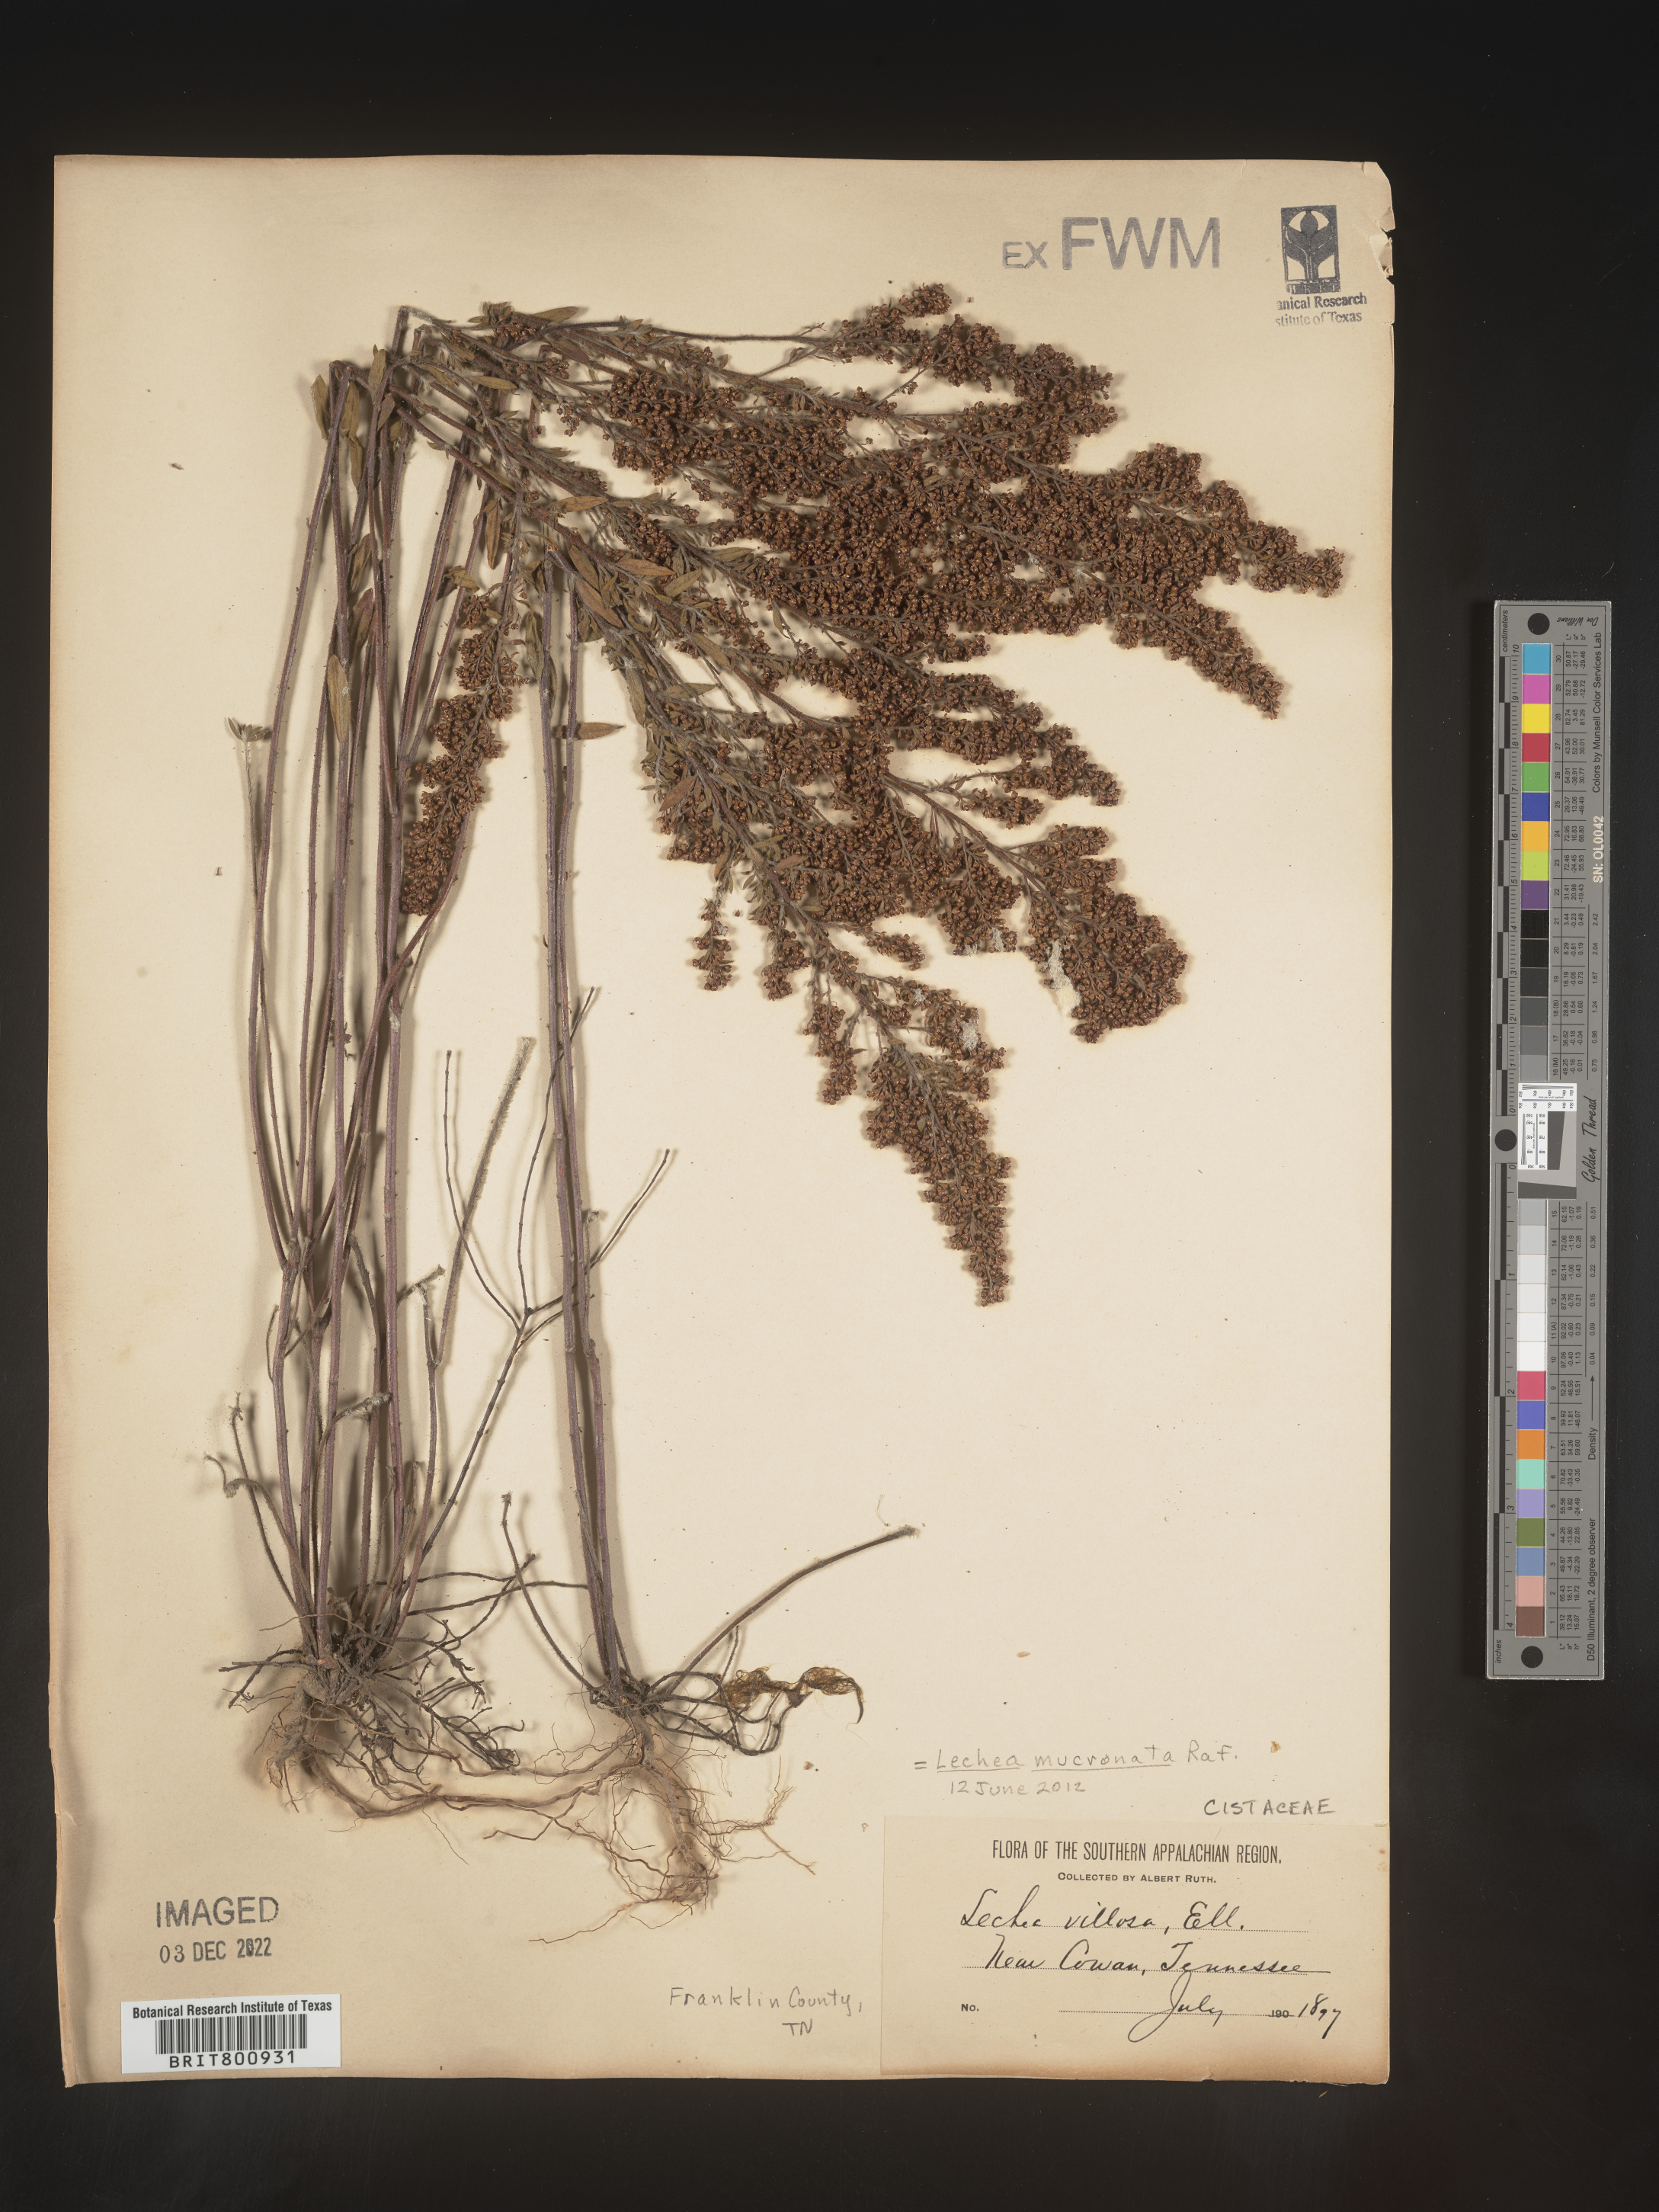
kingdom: Plantae
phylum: Tracheophyta
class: Magnoliopsida
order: Malvales
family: Cistaceae
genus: Lechea
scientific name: Lechea mucronata
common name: Hairy pinweed
